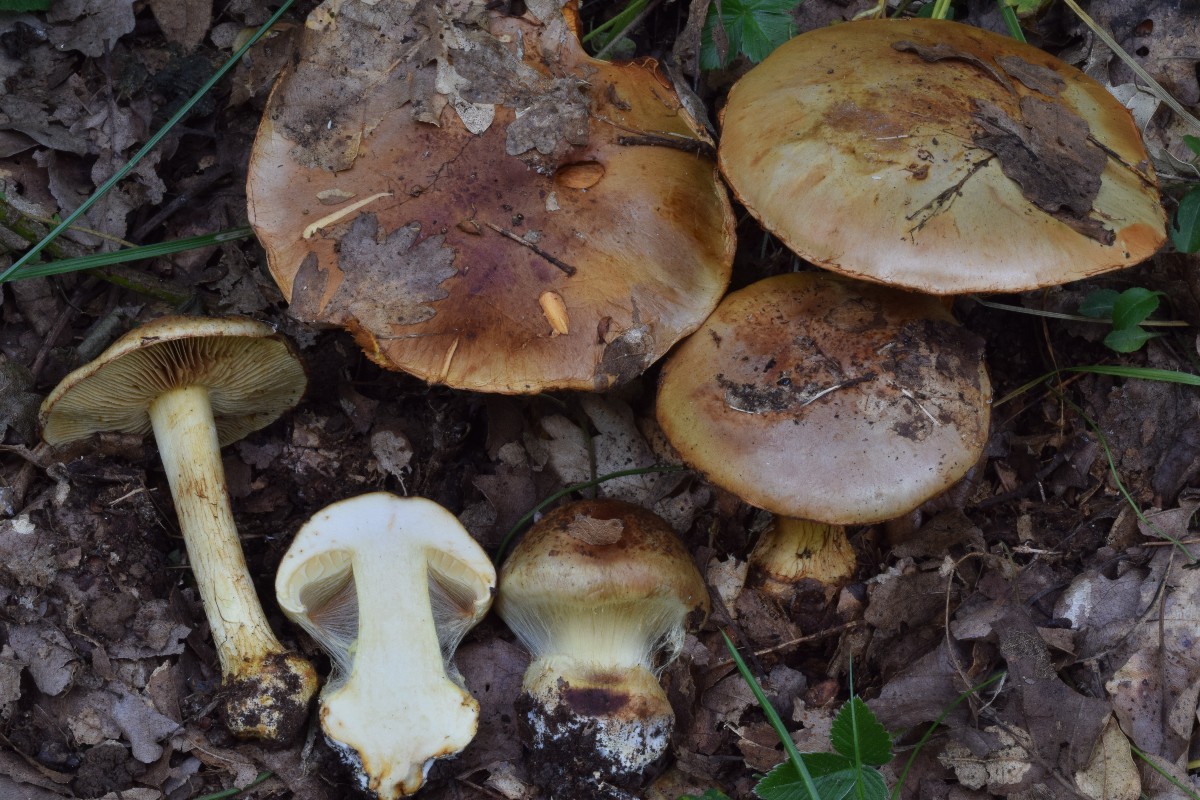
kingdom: Fungi
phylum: Basidiomycota
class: Agaricomycetes
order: Agaricales
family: Cortinariaceae
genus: Calonarius
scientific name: Calonarius quercilicis
